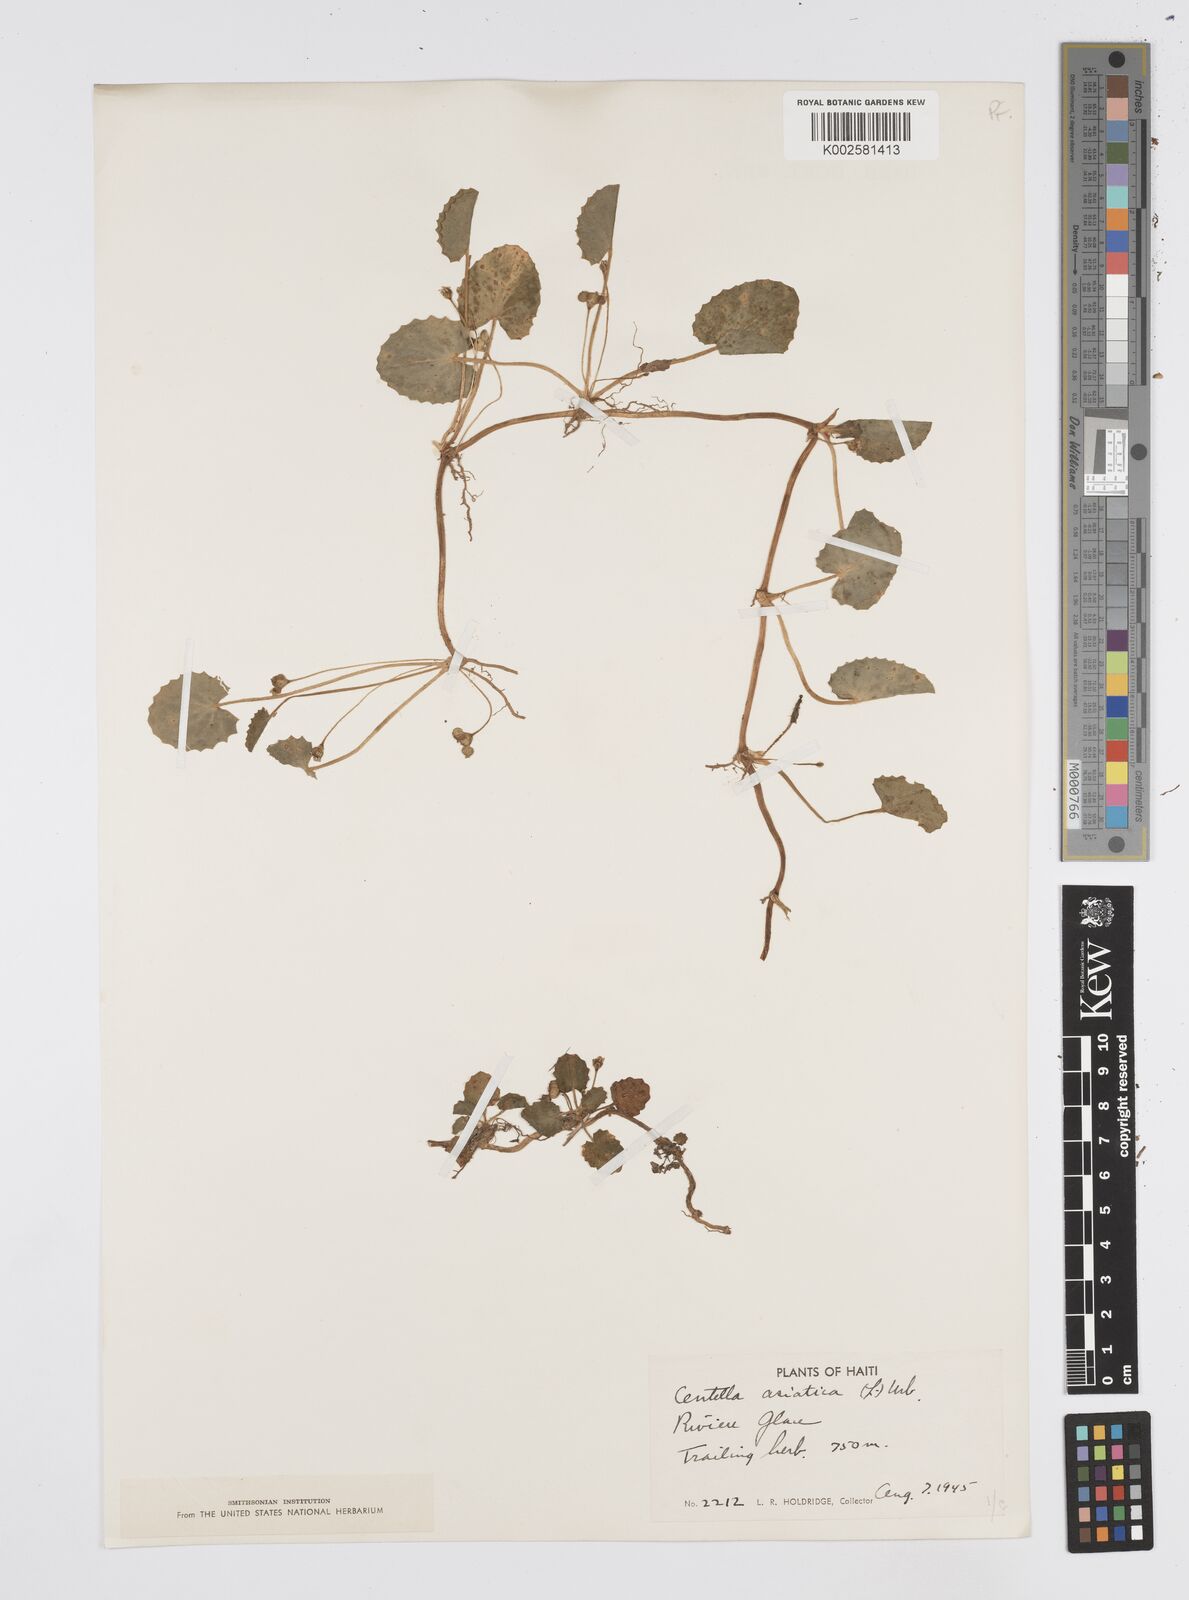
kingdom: Plantae
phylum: Tracheophyta
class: Magnoliopsida
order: Apiales
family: Apiaceae
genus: Centella
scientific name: Centella asiatica
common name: Spadeleaf
